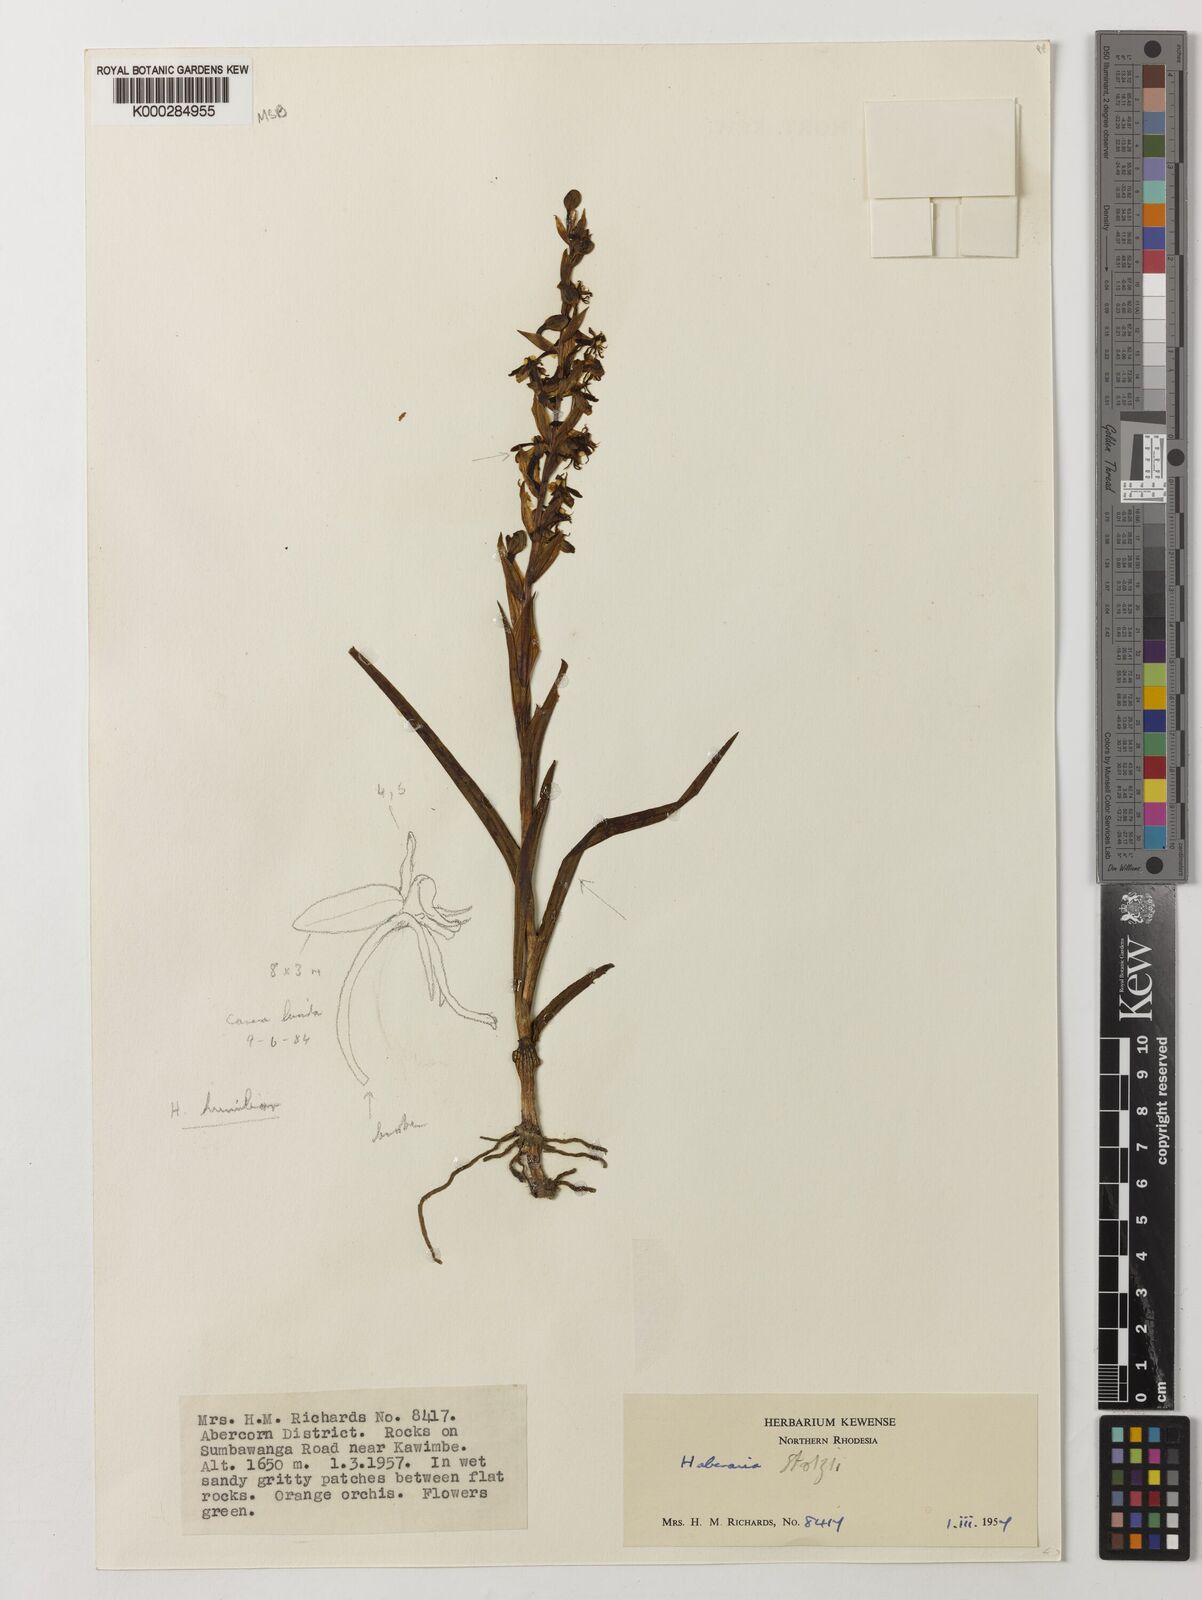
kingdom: Plantae
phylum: Tracheophyta
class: Liliopsida
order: Asparagales
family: Orchidaceae
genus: Habenaria
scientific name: Habenaria tortilis
